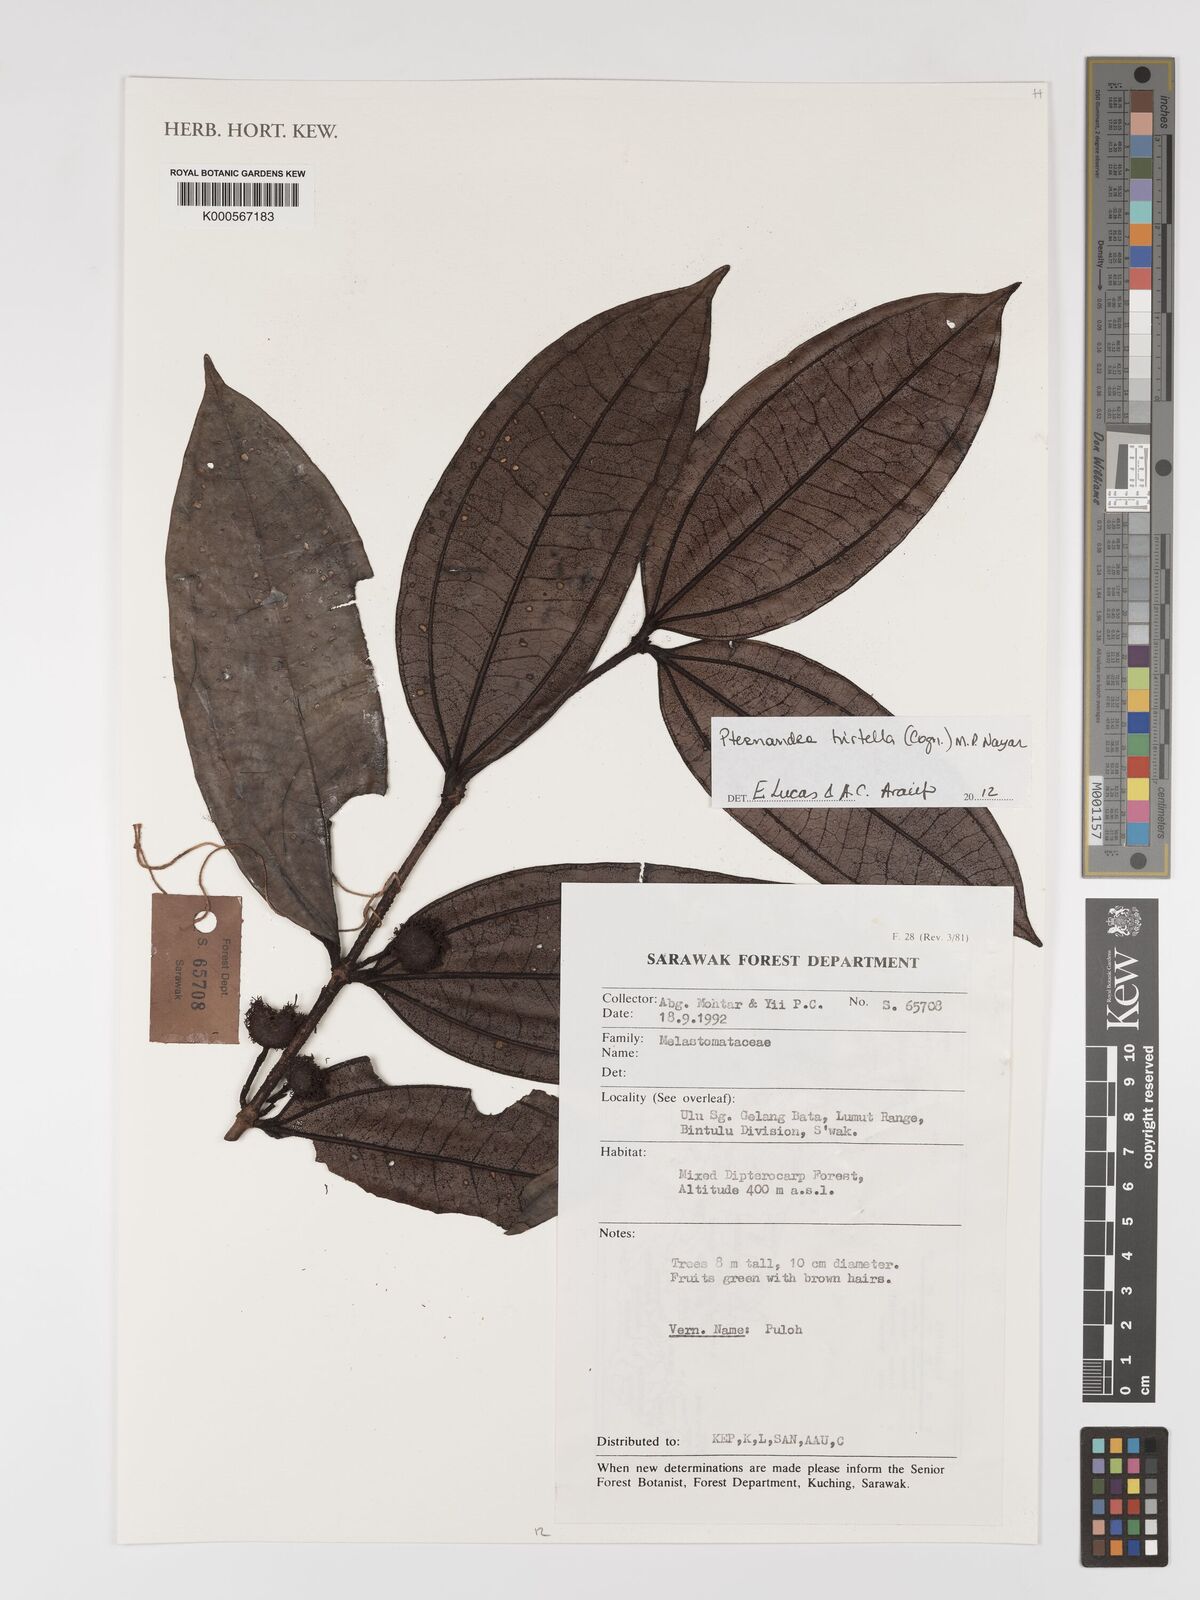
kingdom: Plantae
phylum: Tracheophyta
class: Magnoliopsida
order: Myrtales
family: Melastomataceae
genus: Pternandra
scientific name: Pternandra hirtella
